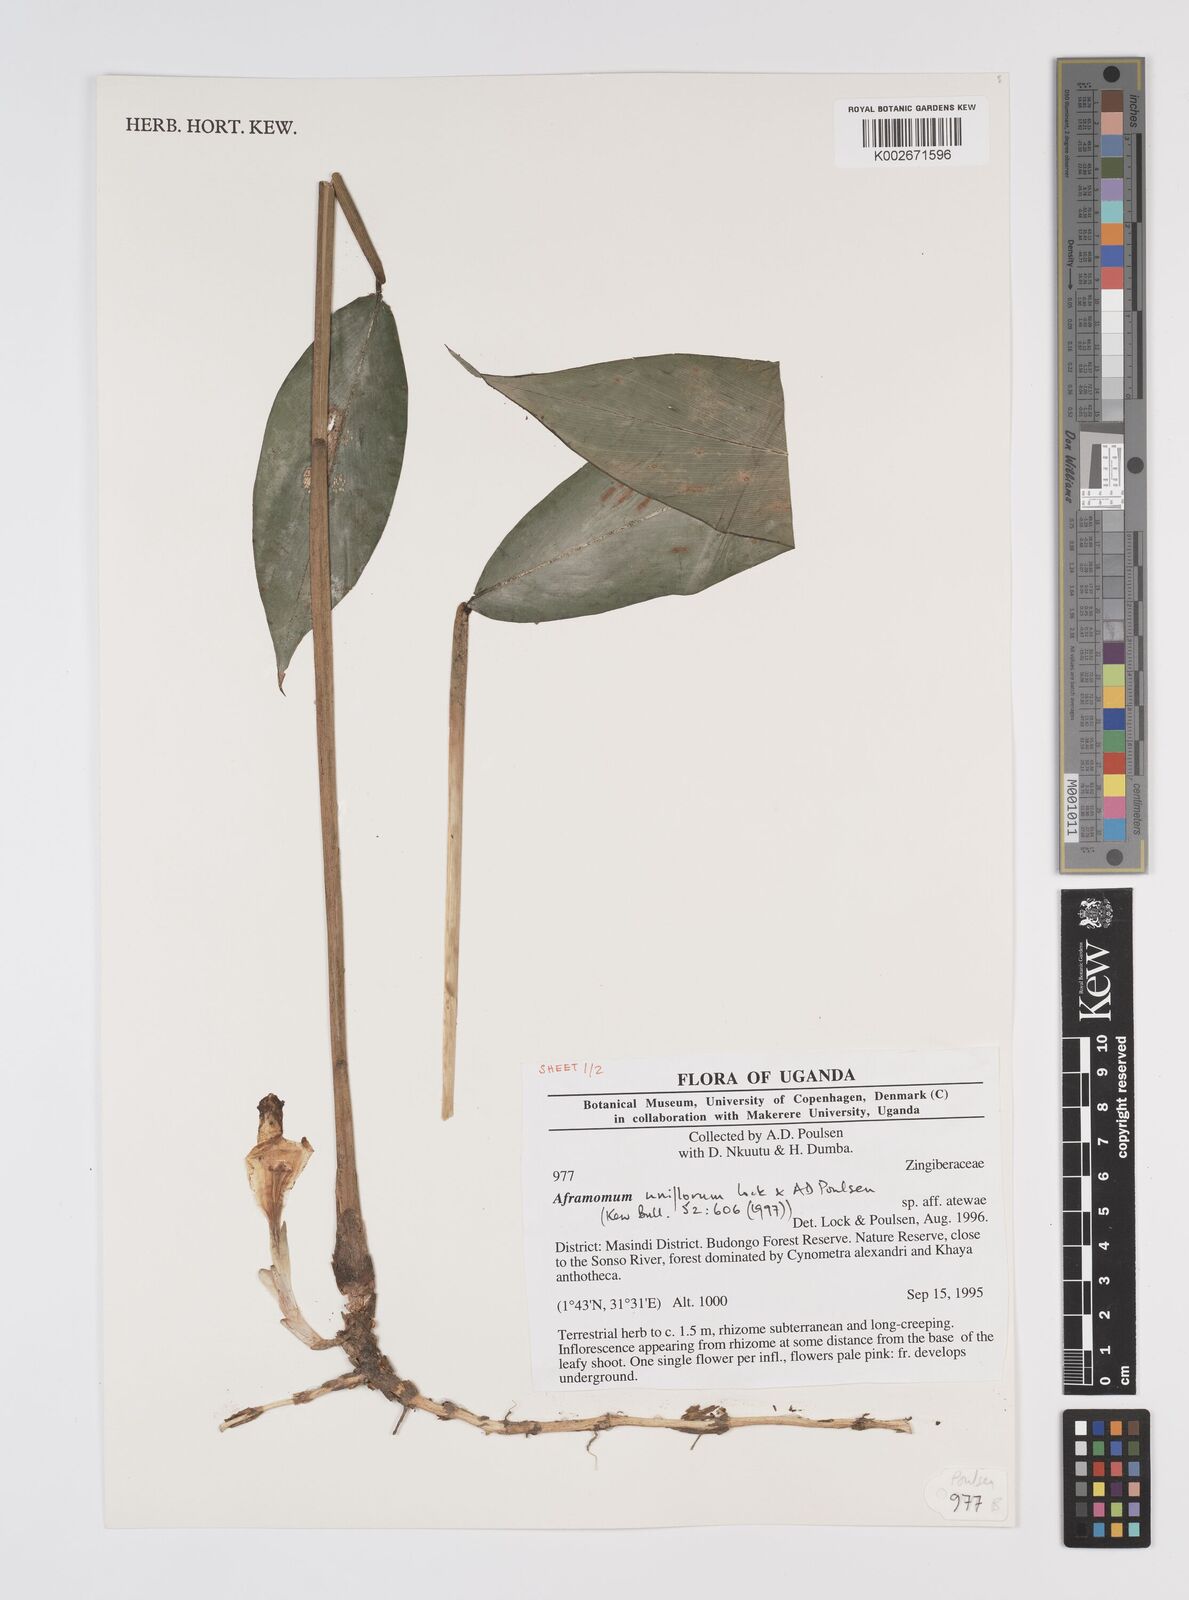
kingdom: Plantae
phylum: Tracheophyta
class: Liliopsida
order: Zingiberales
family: Zingiberaceae
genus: Aframomum
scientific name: Aframomum uniflorum
